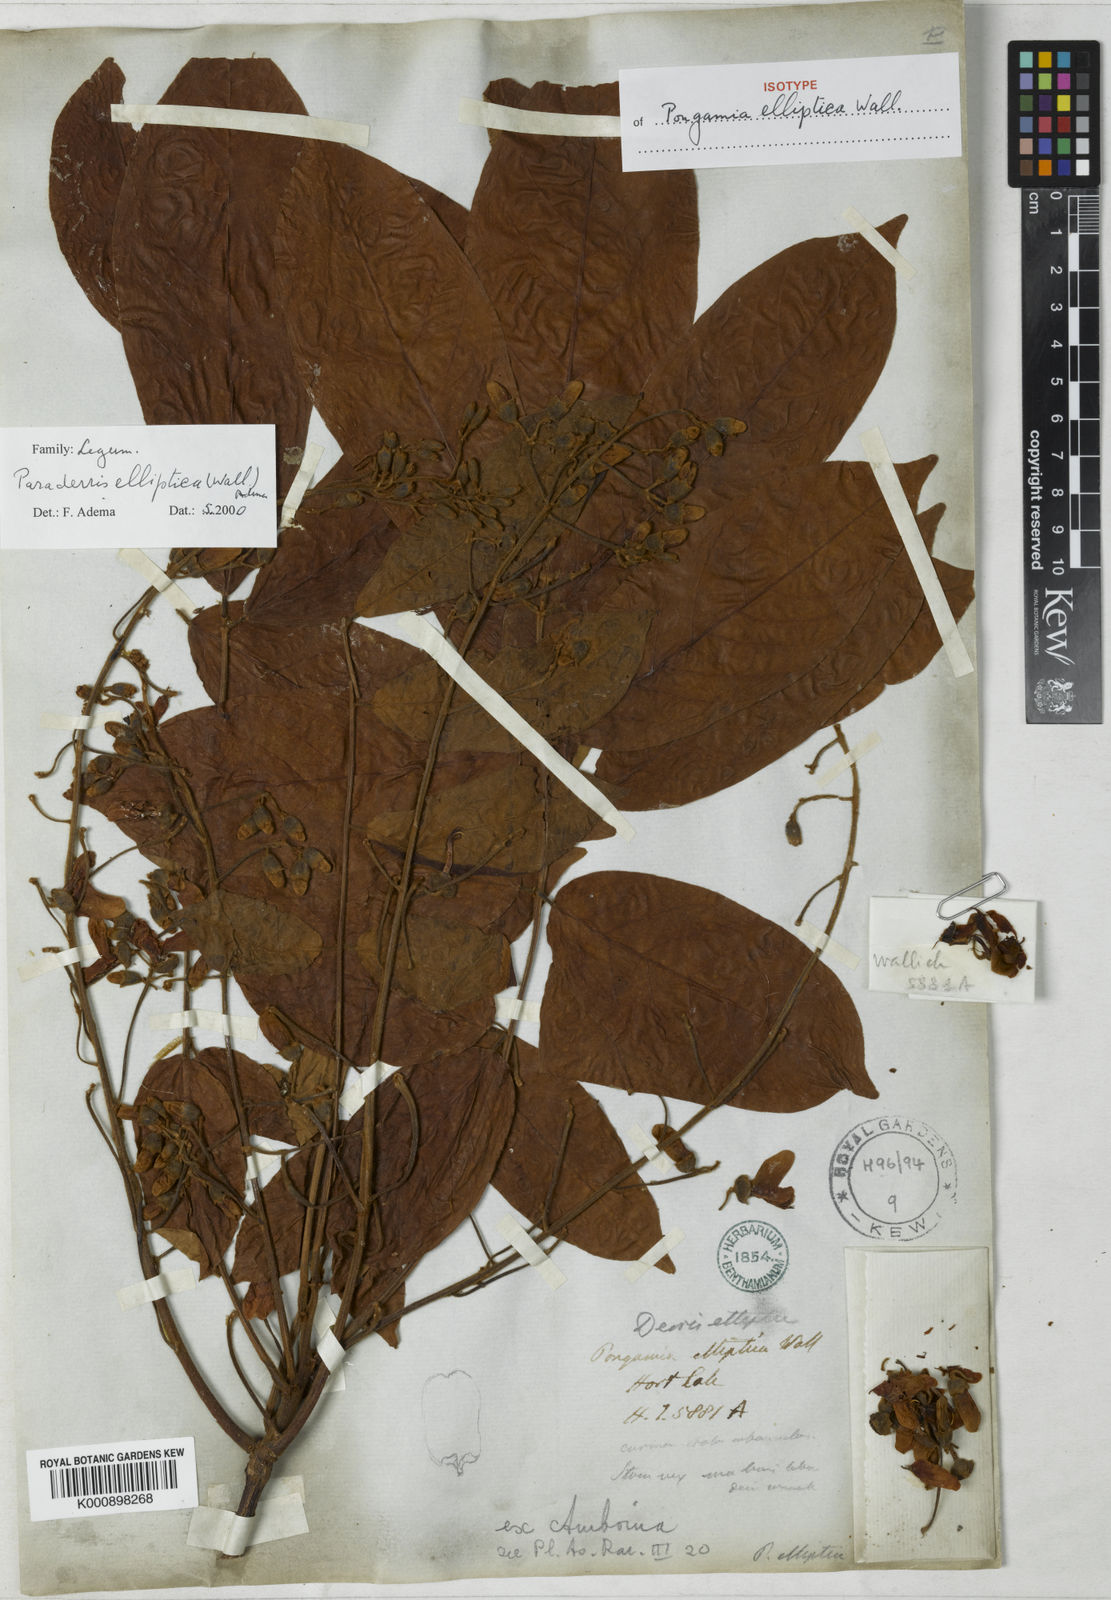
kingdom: Plantae
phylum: Tracheophyta
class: Magnoliopsida
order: Fabales
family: Fabaceae
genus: Derris
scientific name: Derris elliptica
